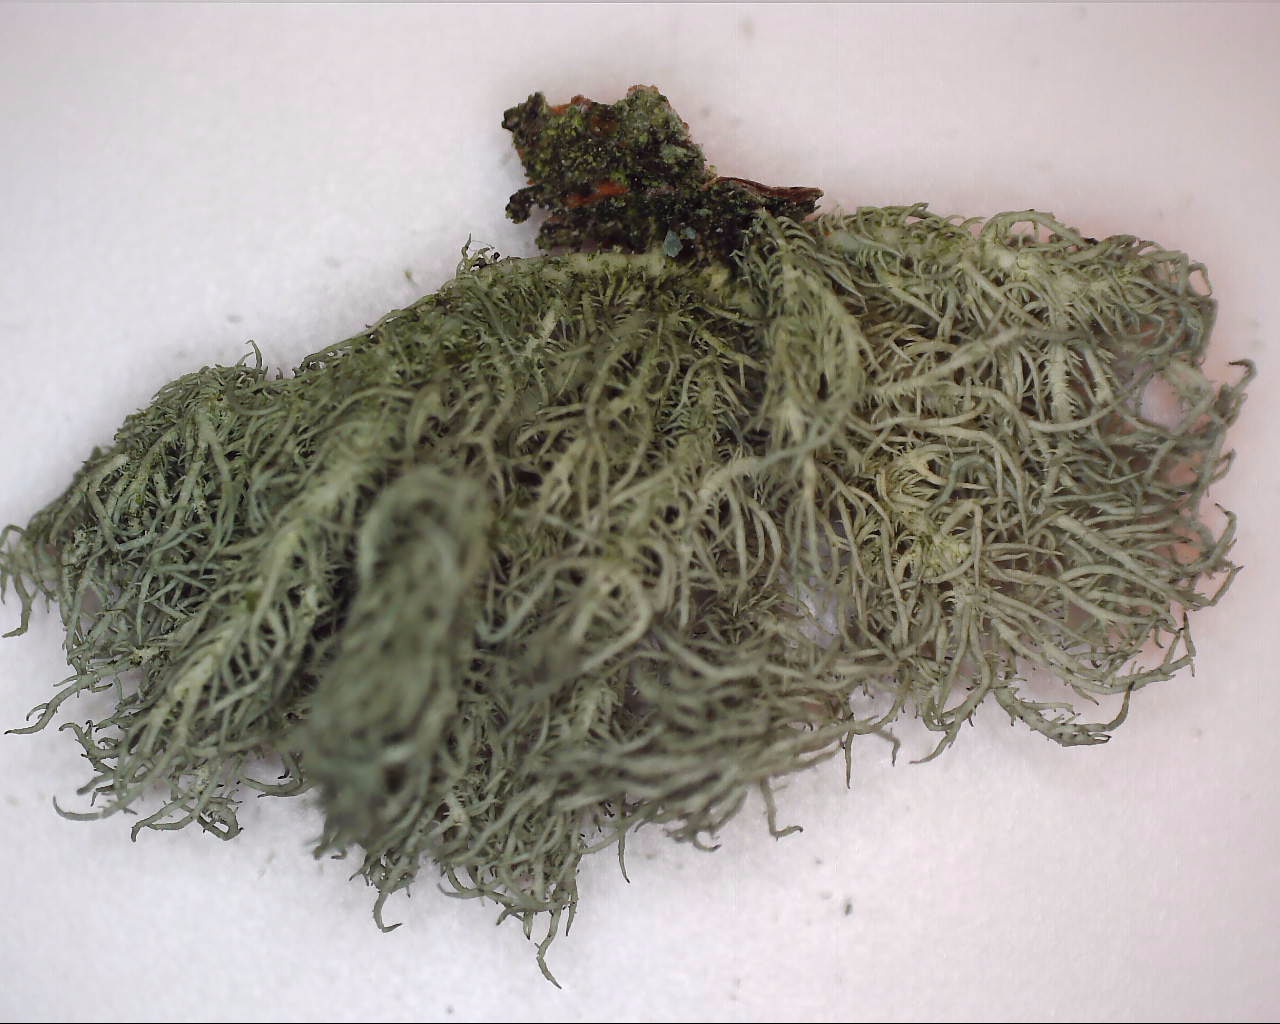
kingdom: Fungi
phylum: Ascomycota
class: Lecanoromycetes
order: Lecanorales
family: Parmeliaceae
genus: Usnea
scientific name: Usnea hirta
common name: liden skæglav
